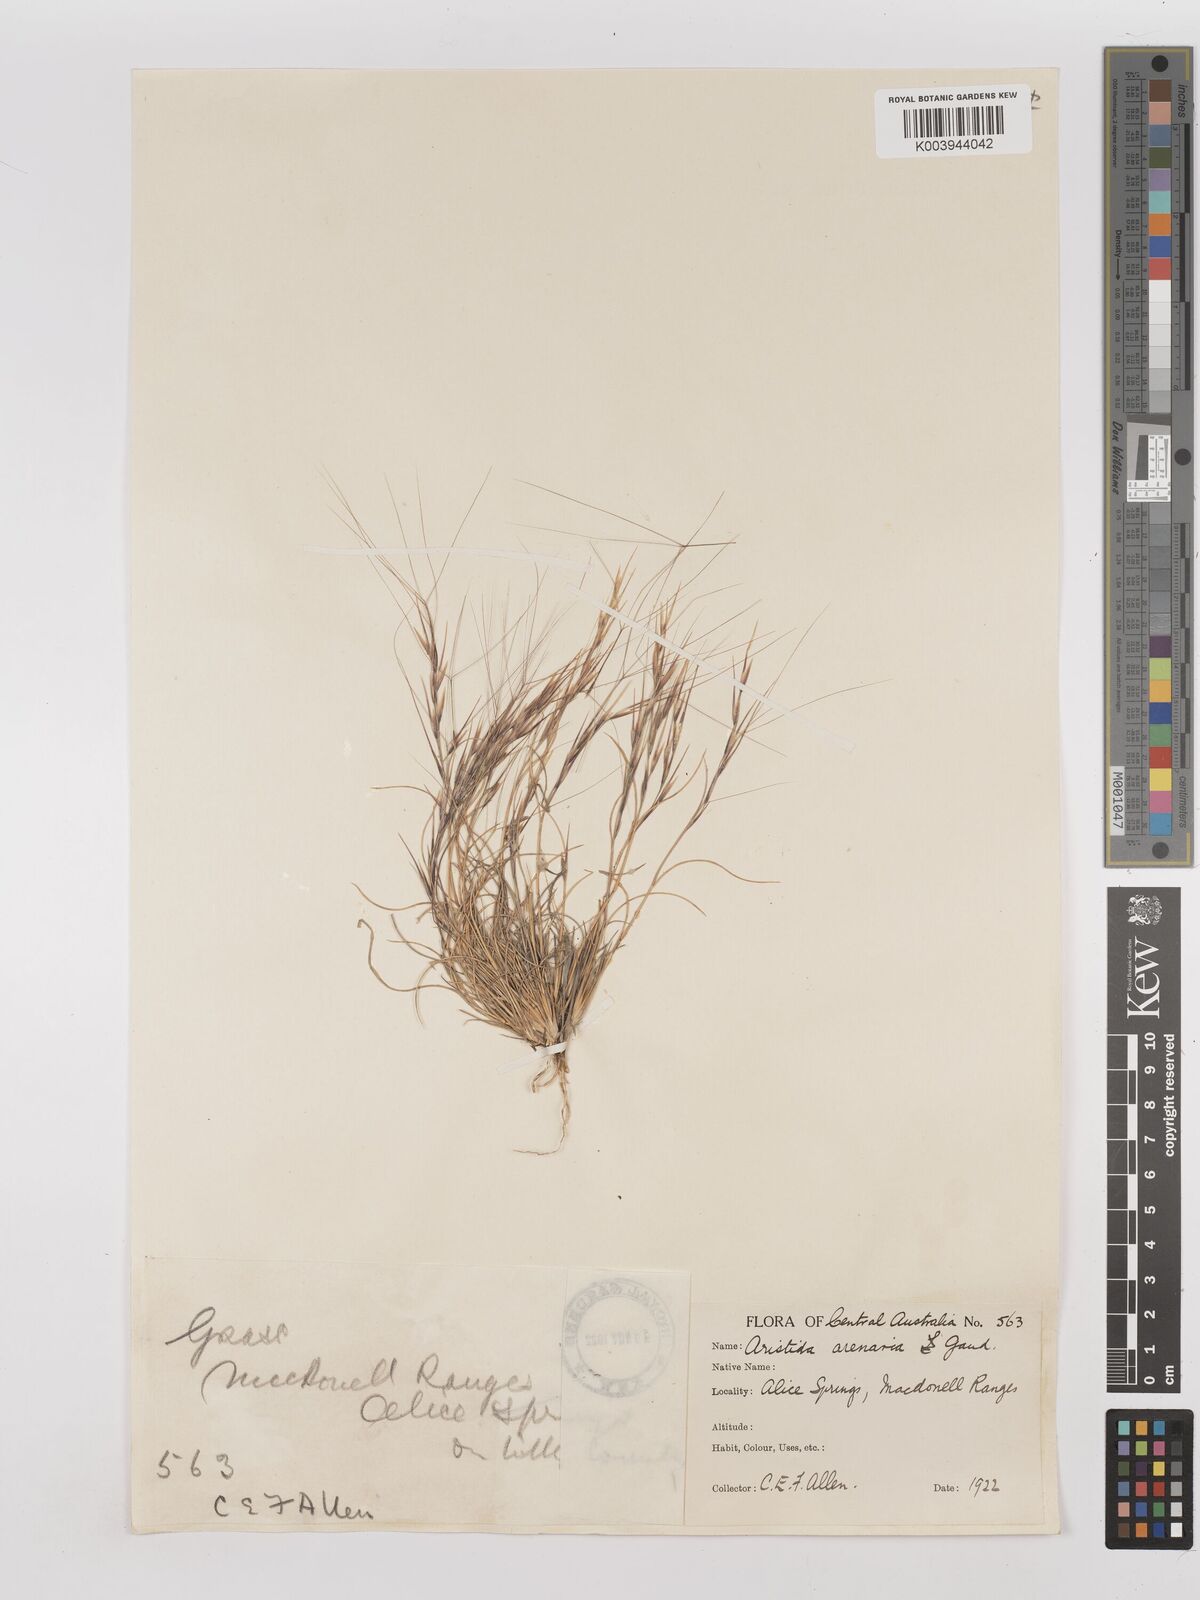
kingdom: Plantae
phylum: Tracheophyta
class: Liliopsida
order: Poales
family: Poaceae
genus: Aristida
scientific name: Aristida contorta
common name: Bunch kerosene grass
